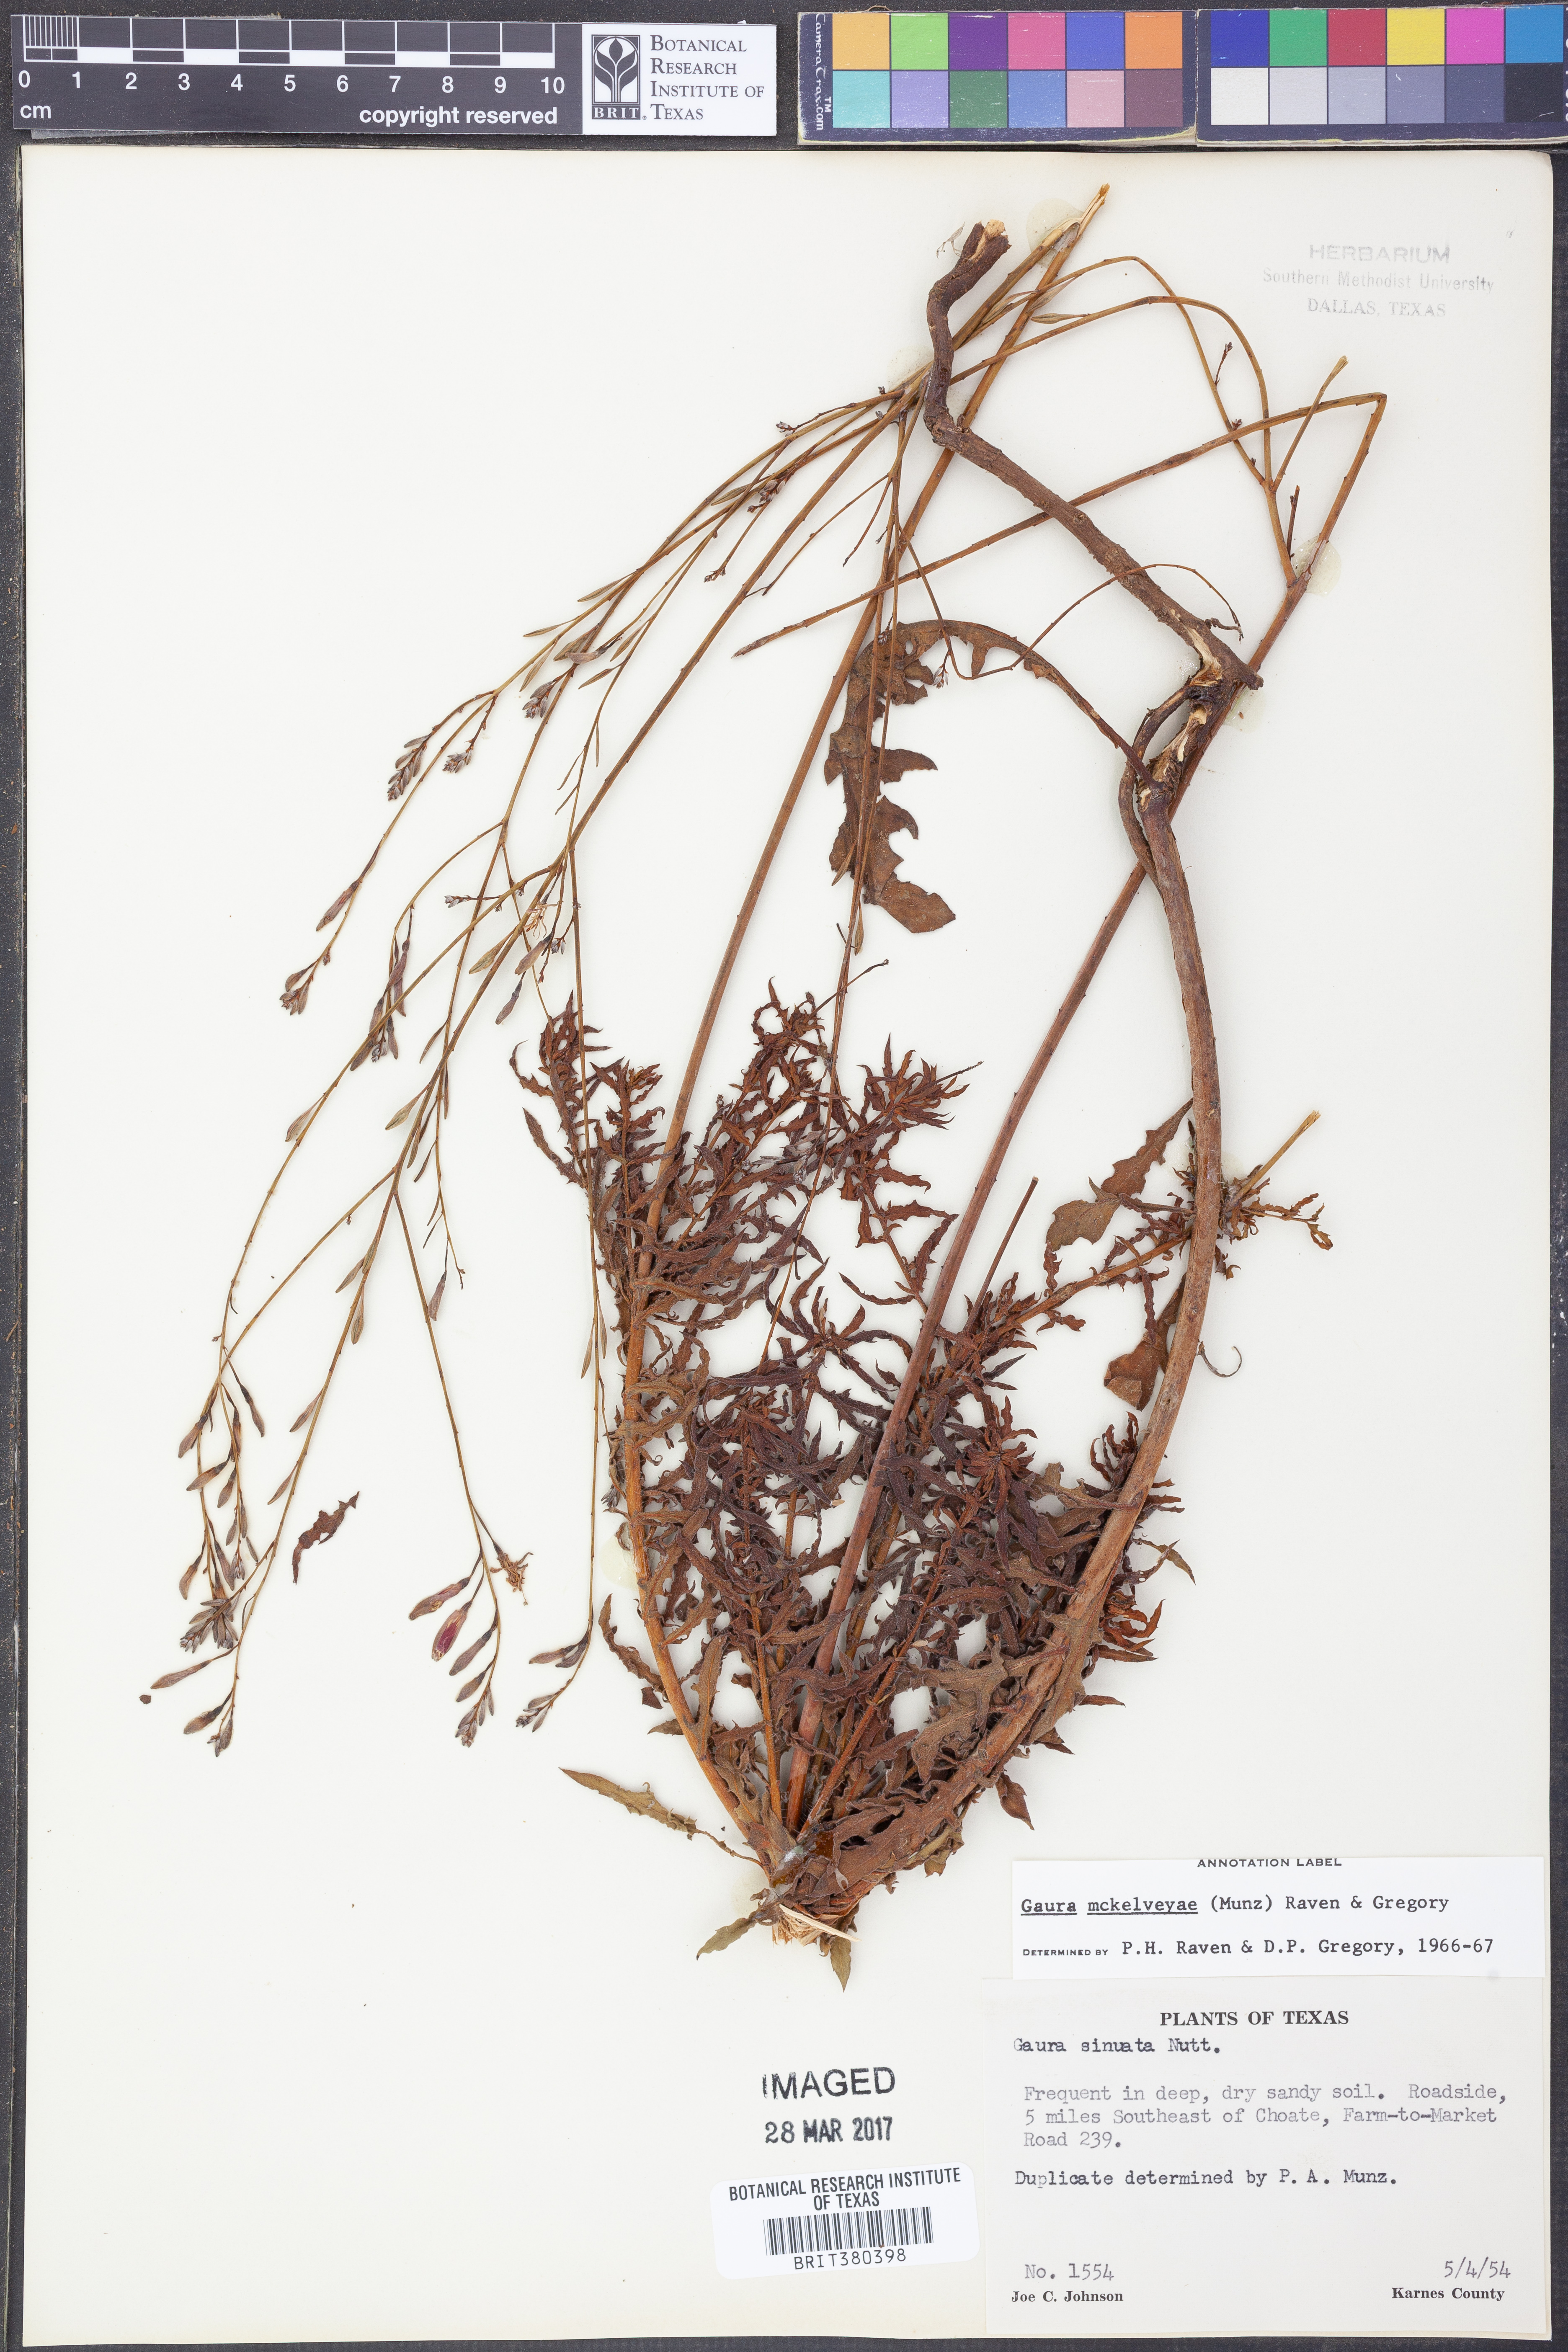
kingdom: Plantae
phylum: Tracheophyta
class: Magnoliopsida
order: Myrtales
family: Onagraceae
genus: Oenothera
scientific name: Oenothera mckelveyae
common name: Mckelvey's beeblossom
